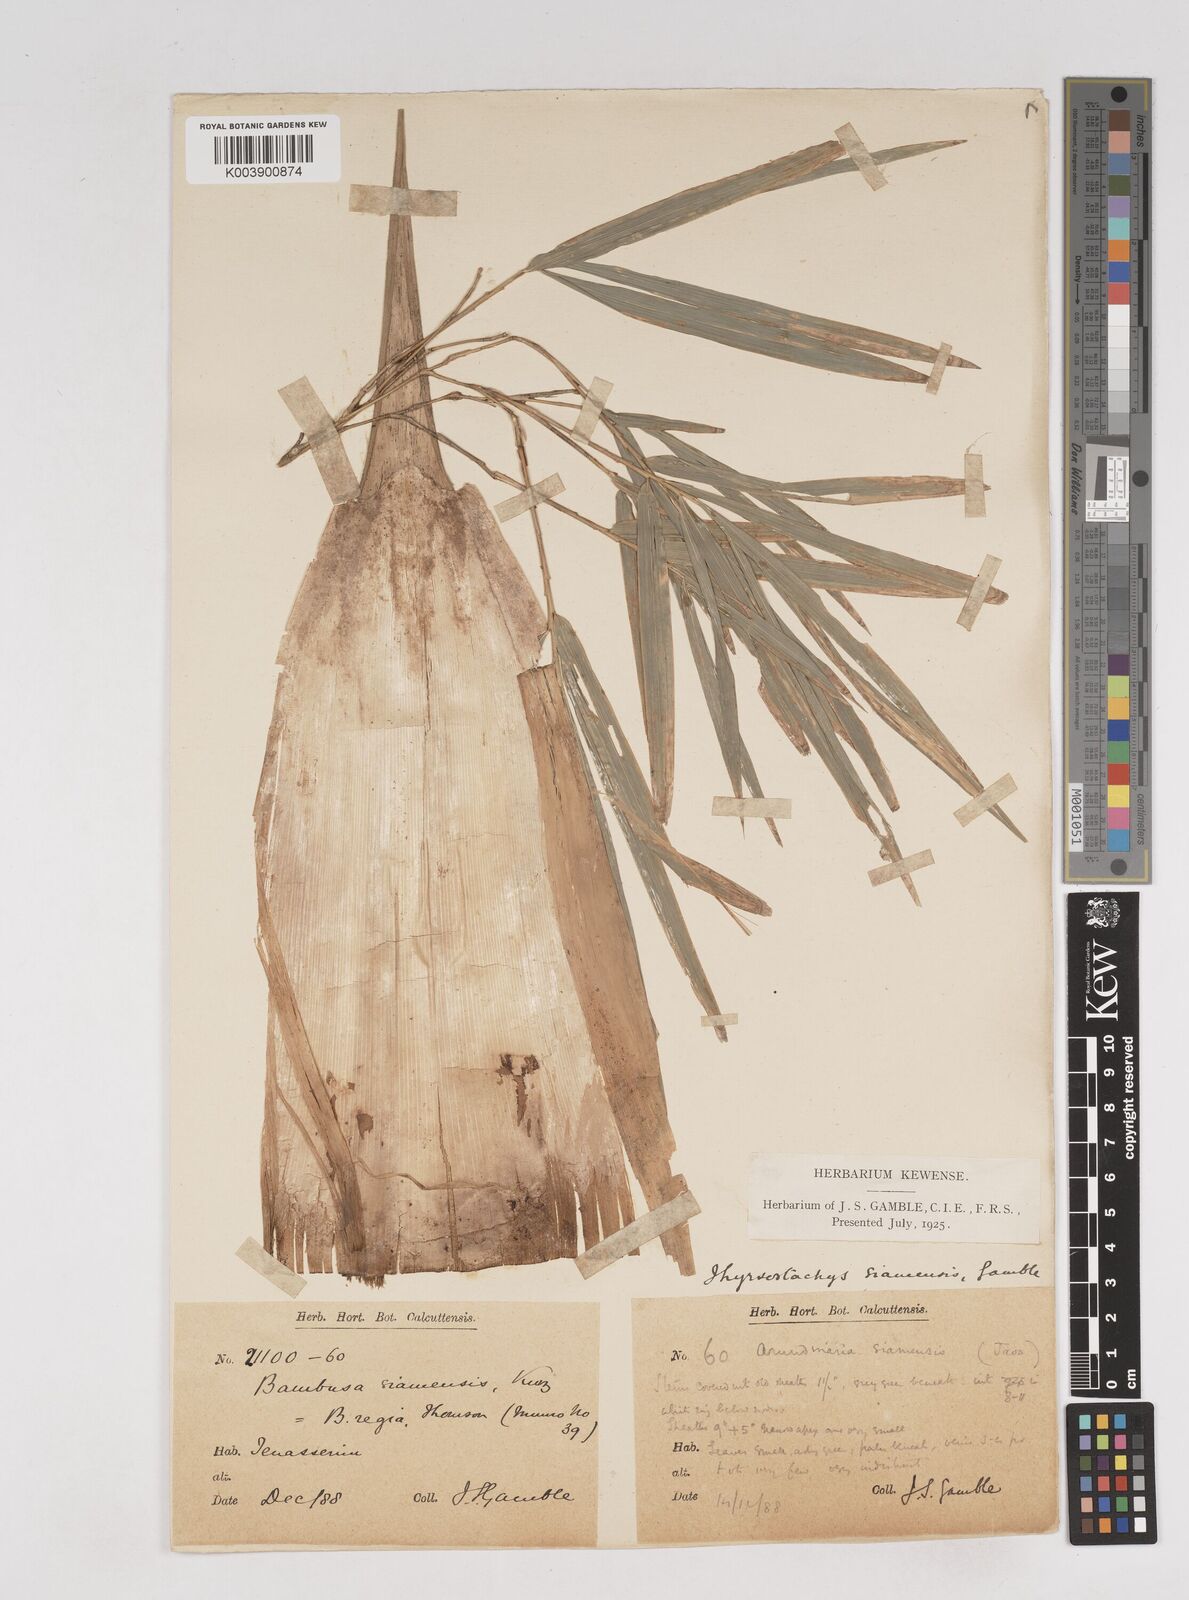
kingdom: Plantae
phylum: Tracheophyta
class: Liliopsida
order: Poales
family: Poaceae
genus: Thyrsostachys
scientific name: Thyrsostachys siamensis
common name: Thailand bamboo
